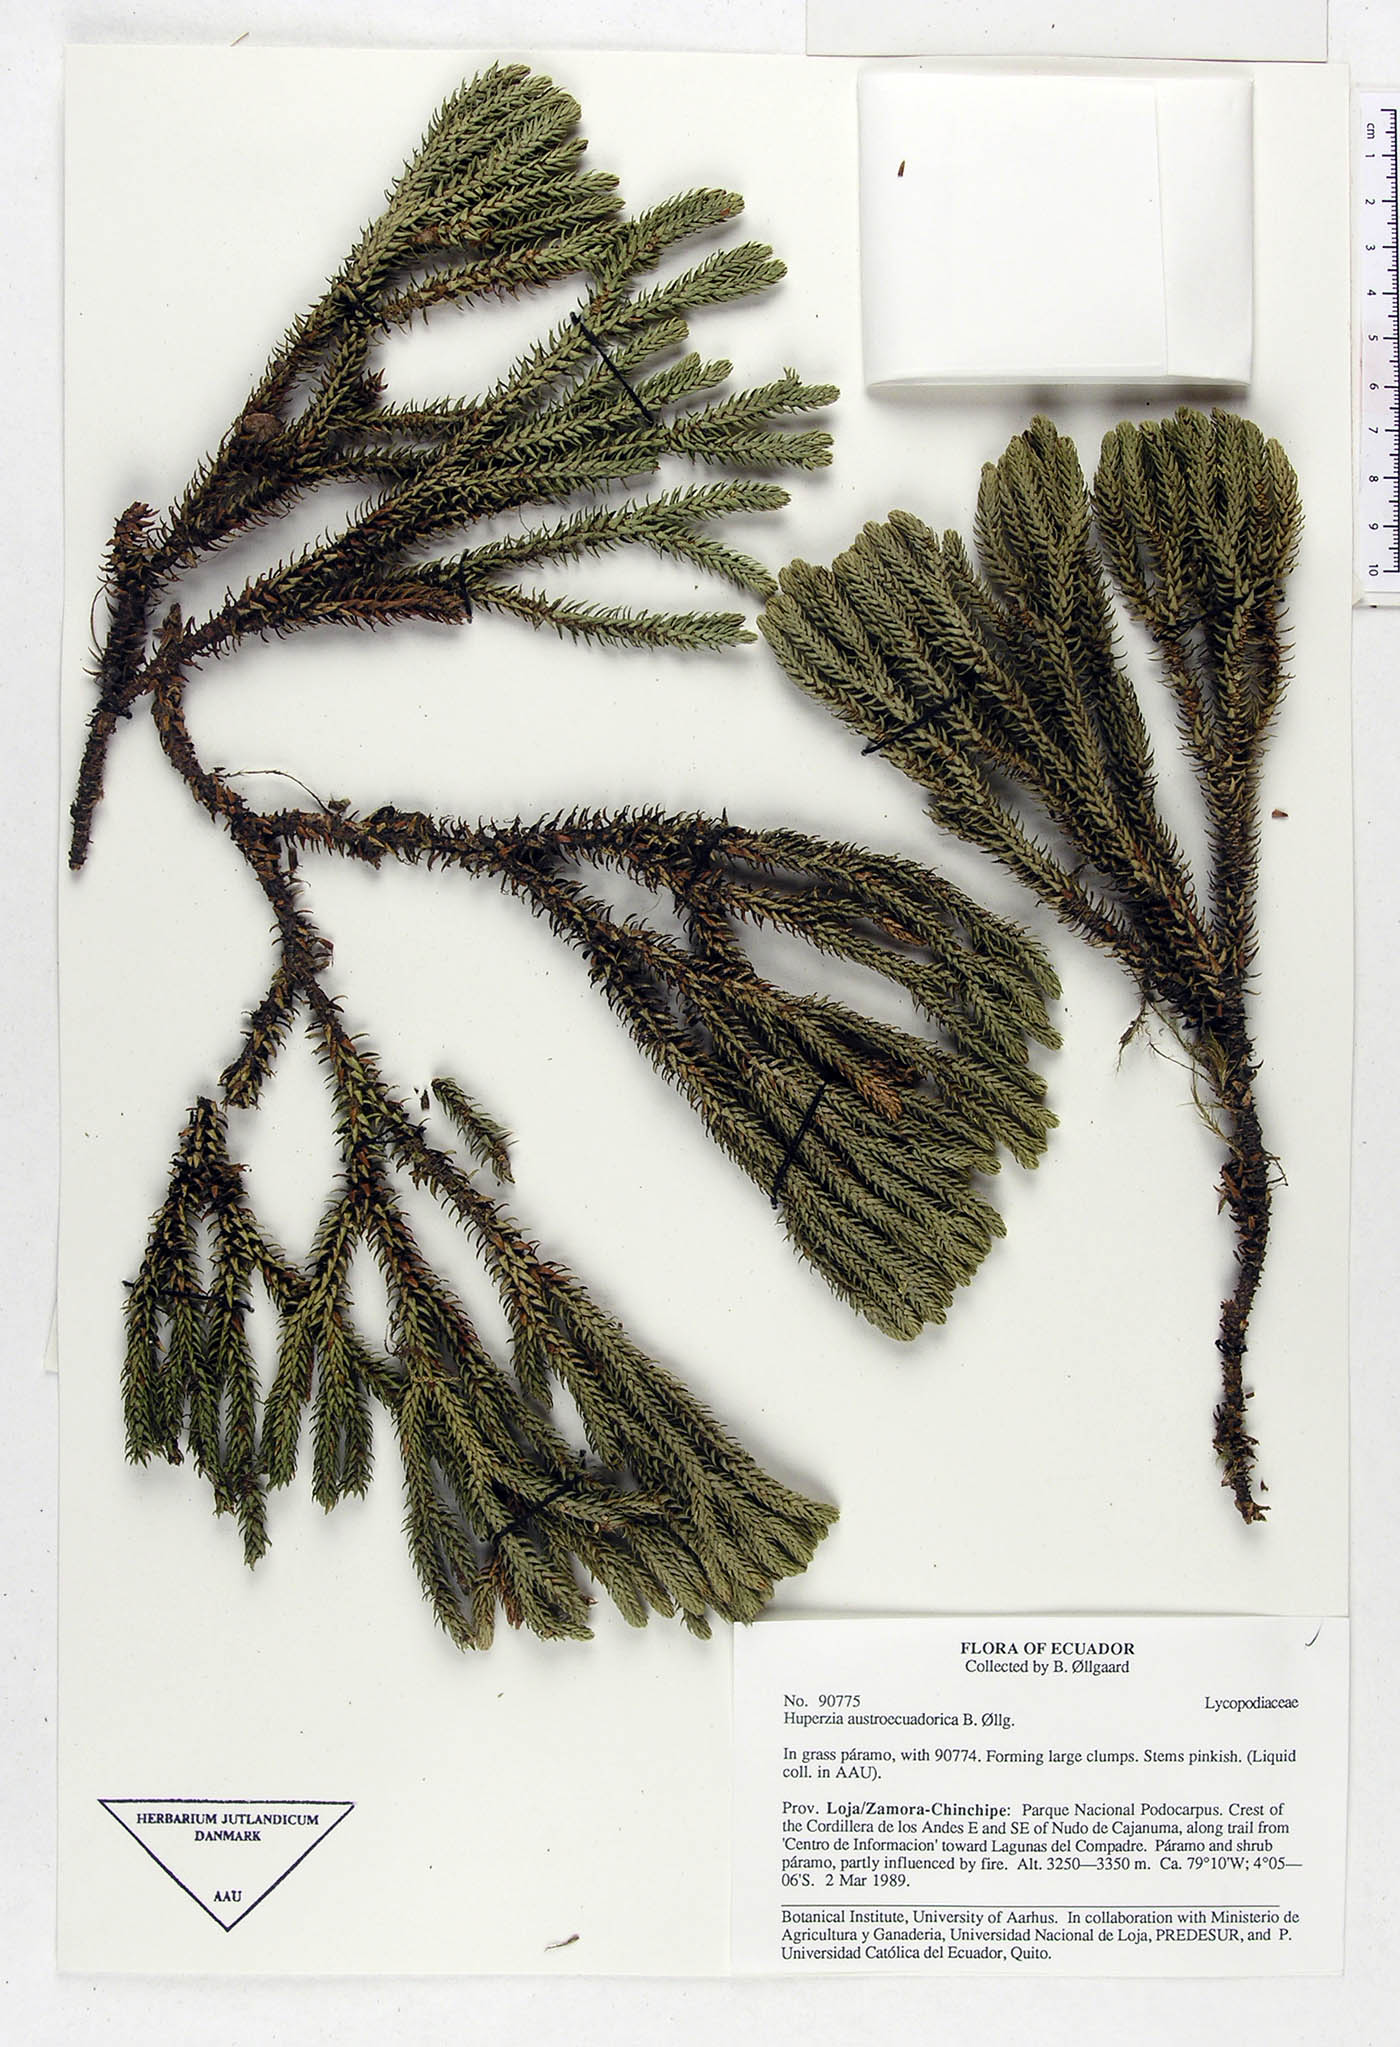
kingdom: Plantae
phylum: Tracheophyta
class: Lycopodiopsida
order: Lycopodiales
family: Lycopodiaceae
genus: Phlegmariurus
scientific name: Phlegmariurus austroecuadoricus
